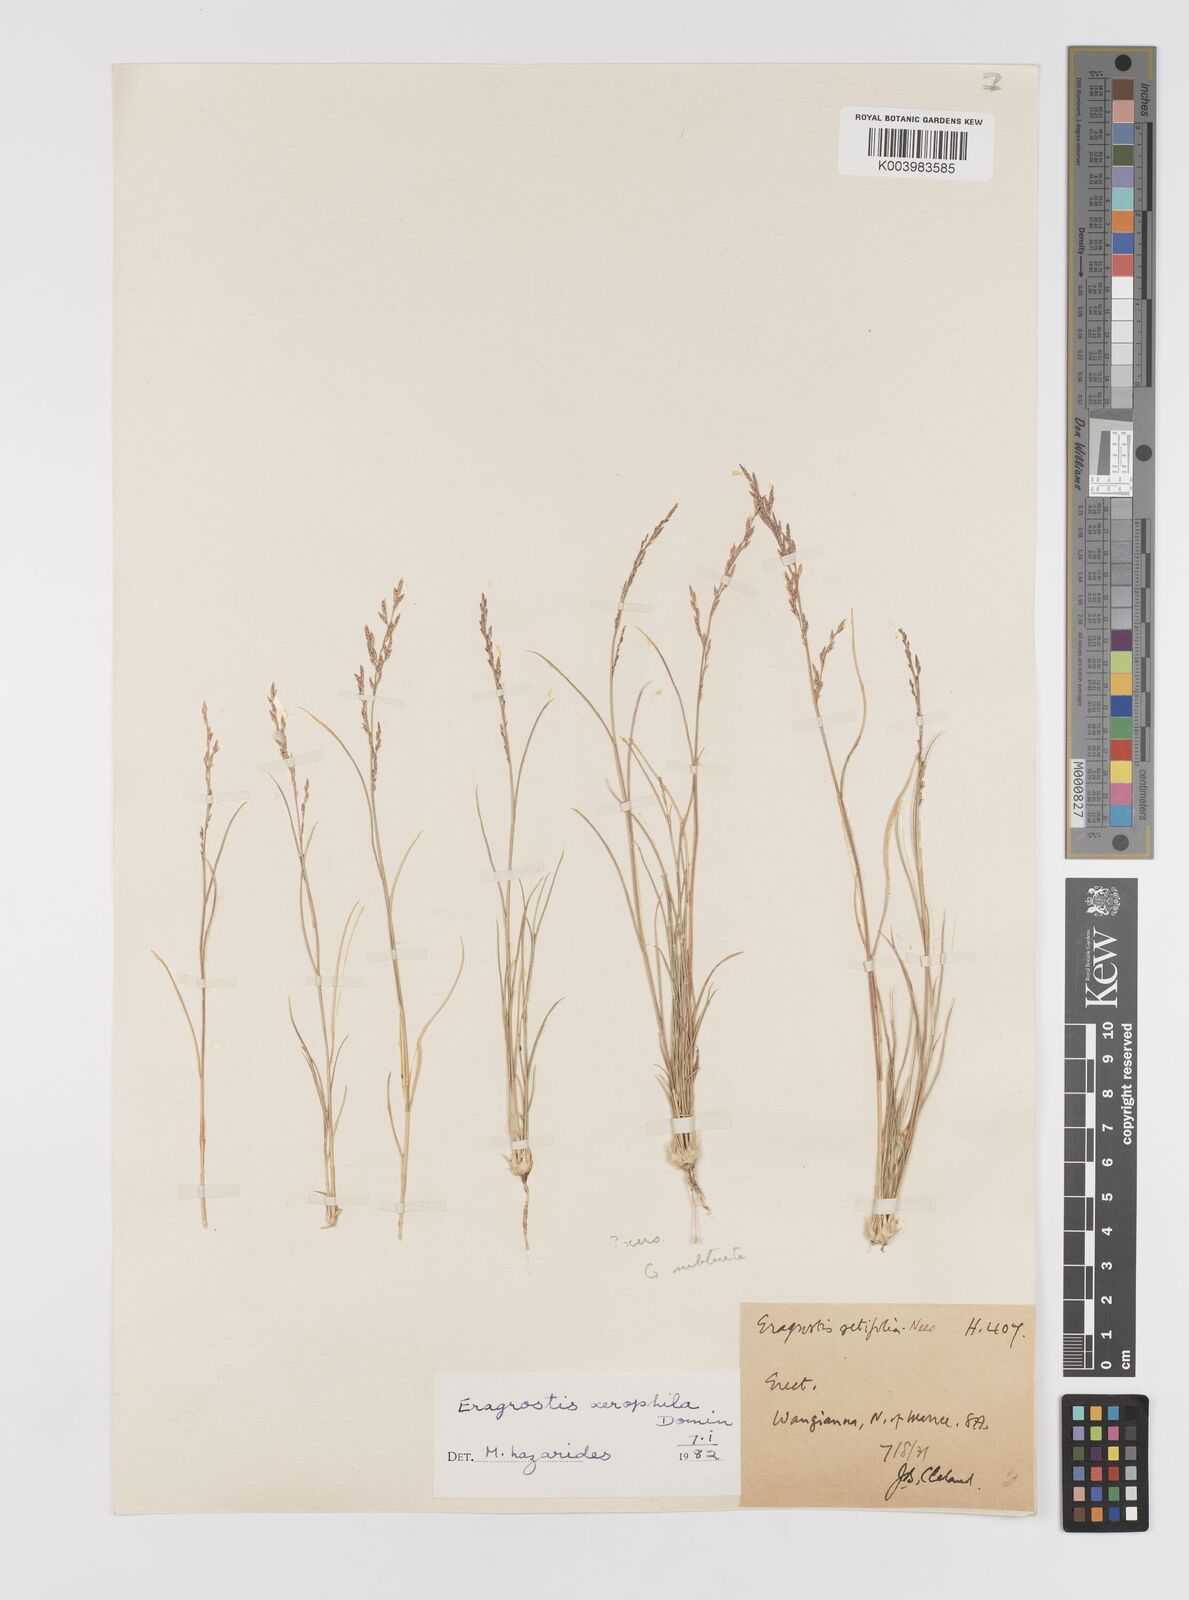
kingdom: Plantae
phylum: Tracheophyta
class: Liliopsida
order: Poales
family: Poaceae
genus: Eragrostis
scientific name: Eragrostis xerophila
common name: Wire wandarrie grass
